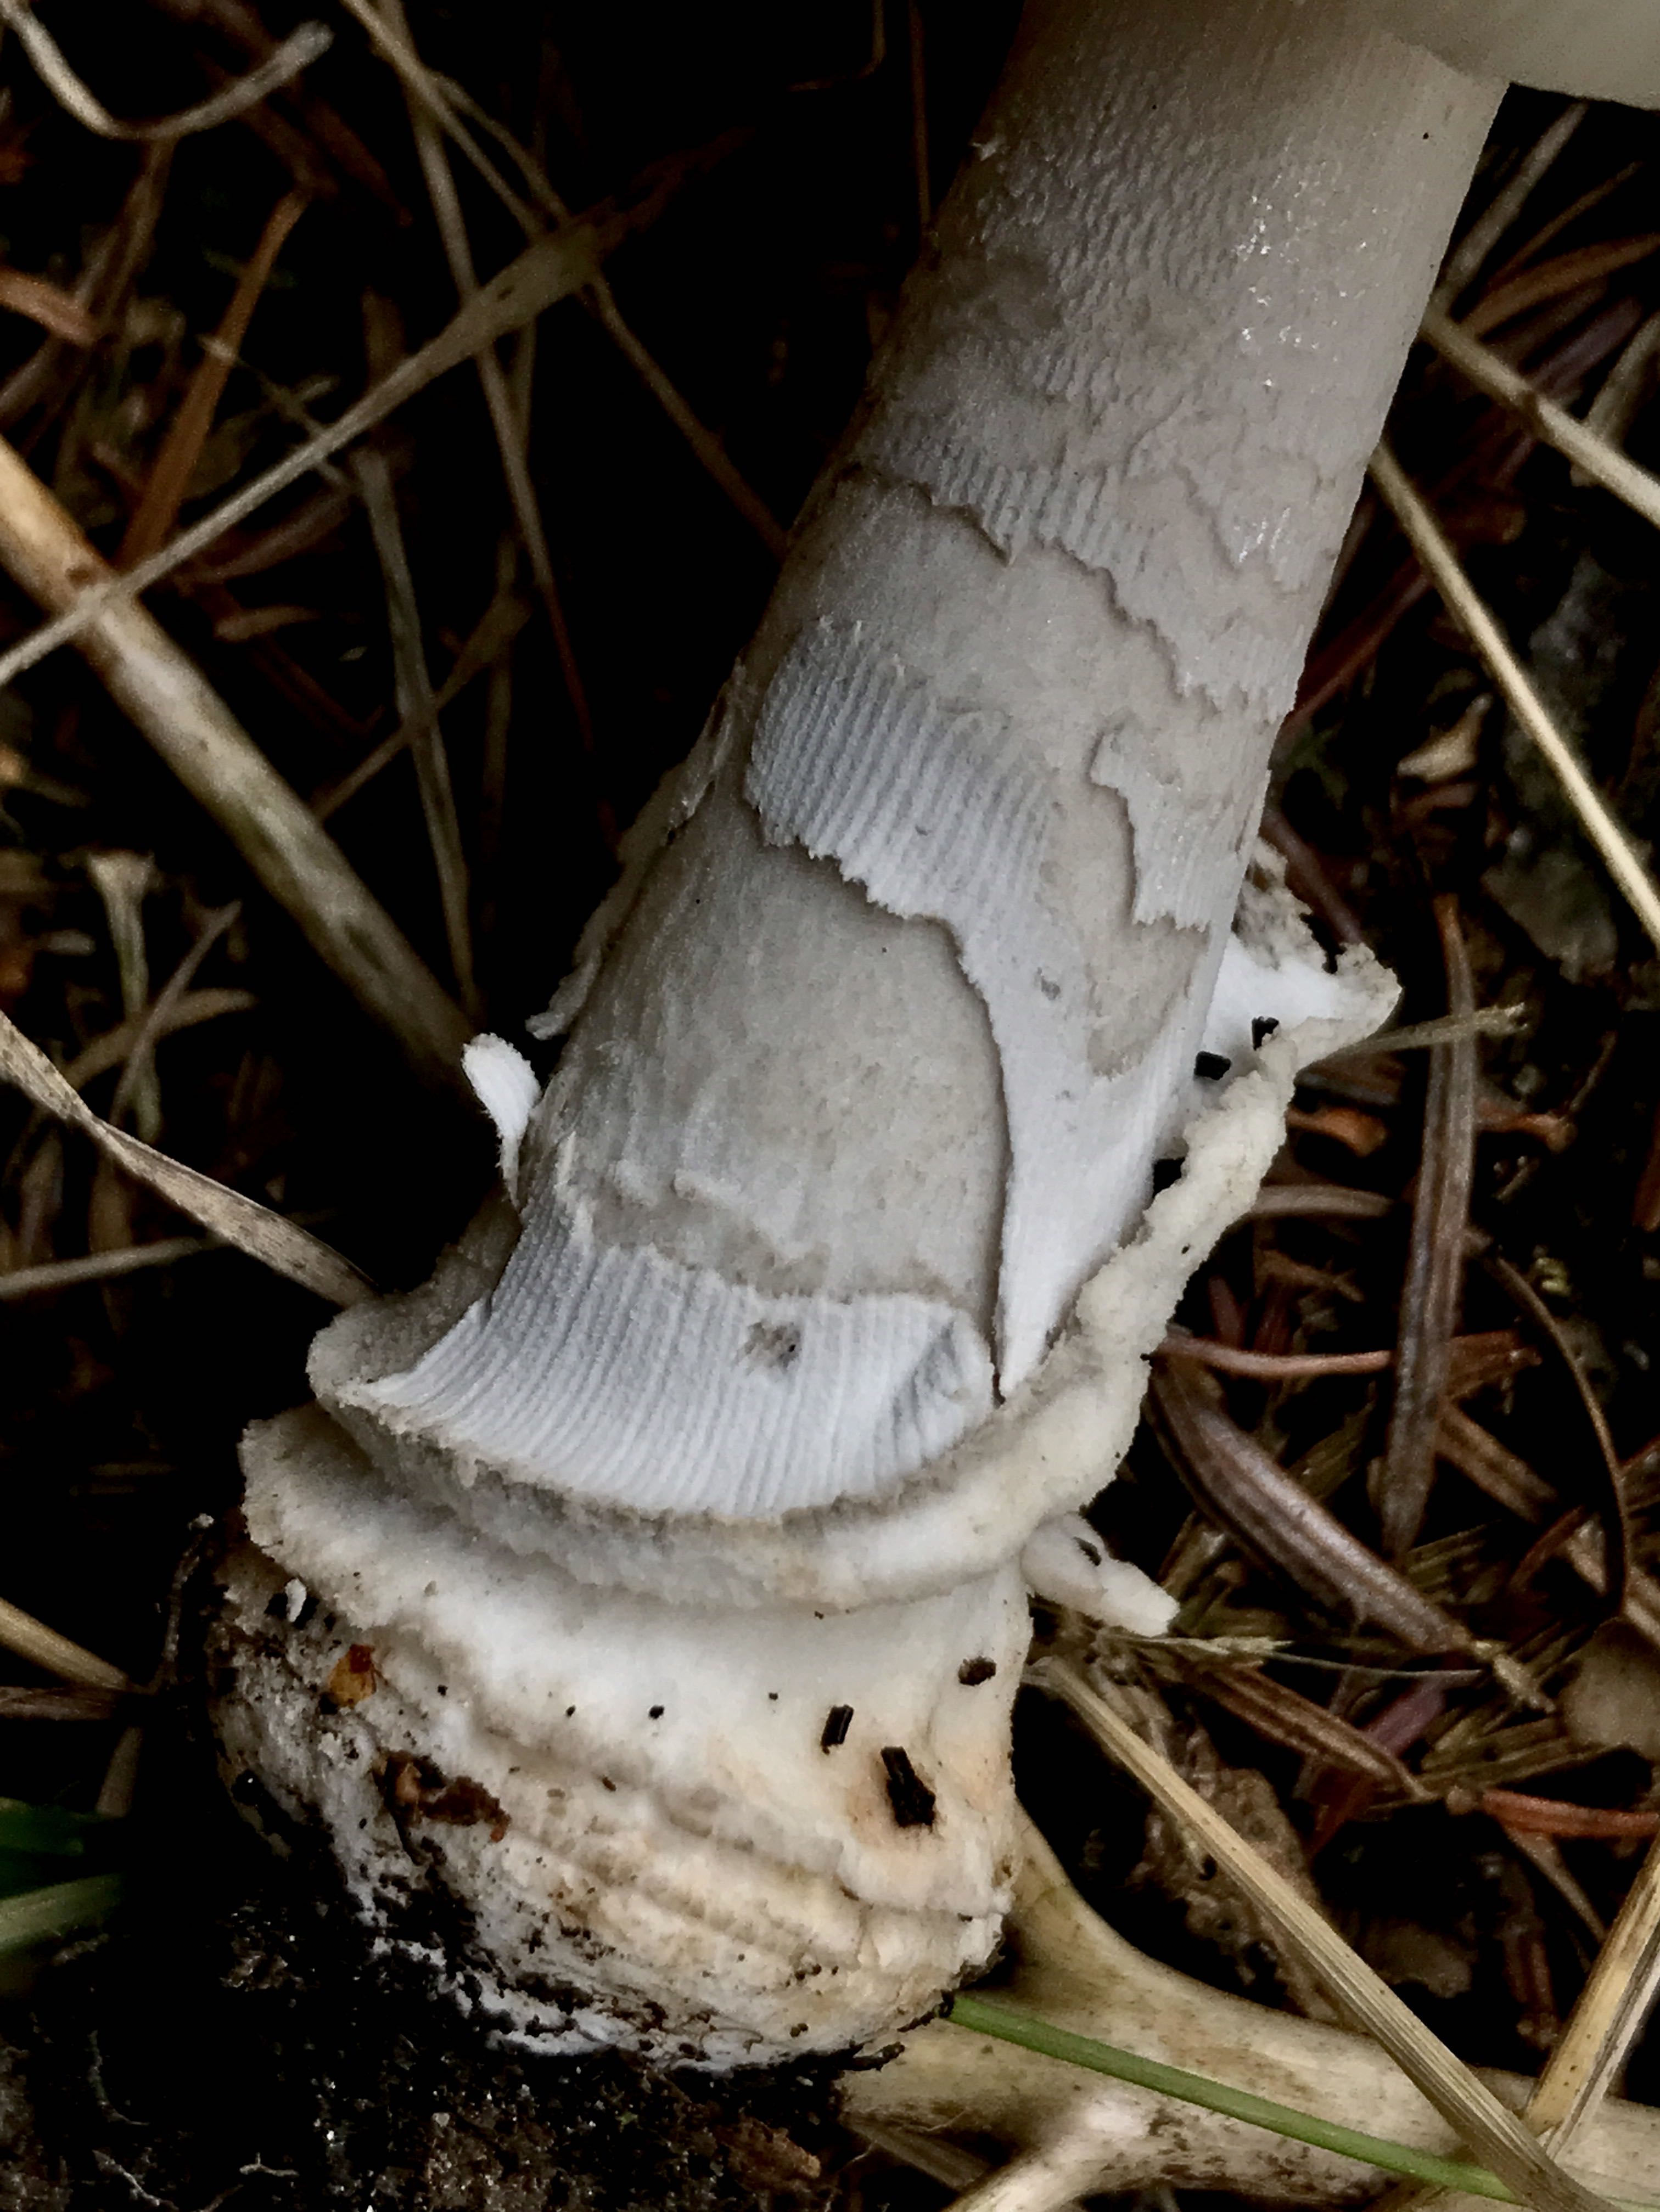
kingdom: Fungi
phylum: Basidiomycota
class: Agaricomycetes
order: Agaricales
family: Amanitaceae
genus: Amanita
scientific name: Amanita
